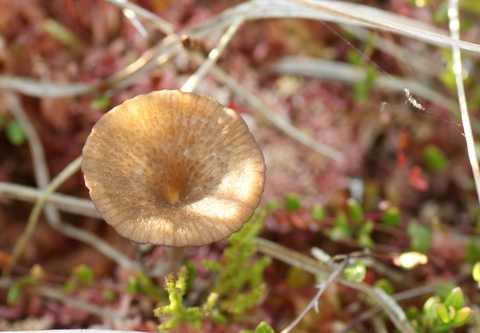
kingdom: Fungi
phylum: Basidiomycota
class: Agaricomycetes
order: Agaricales
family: Hygrophoraceae
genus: Arrhenia
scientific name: Arrhenia gerardiana
